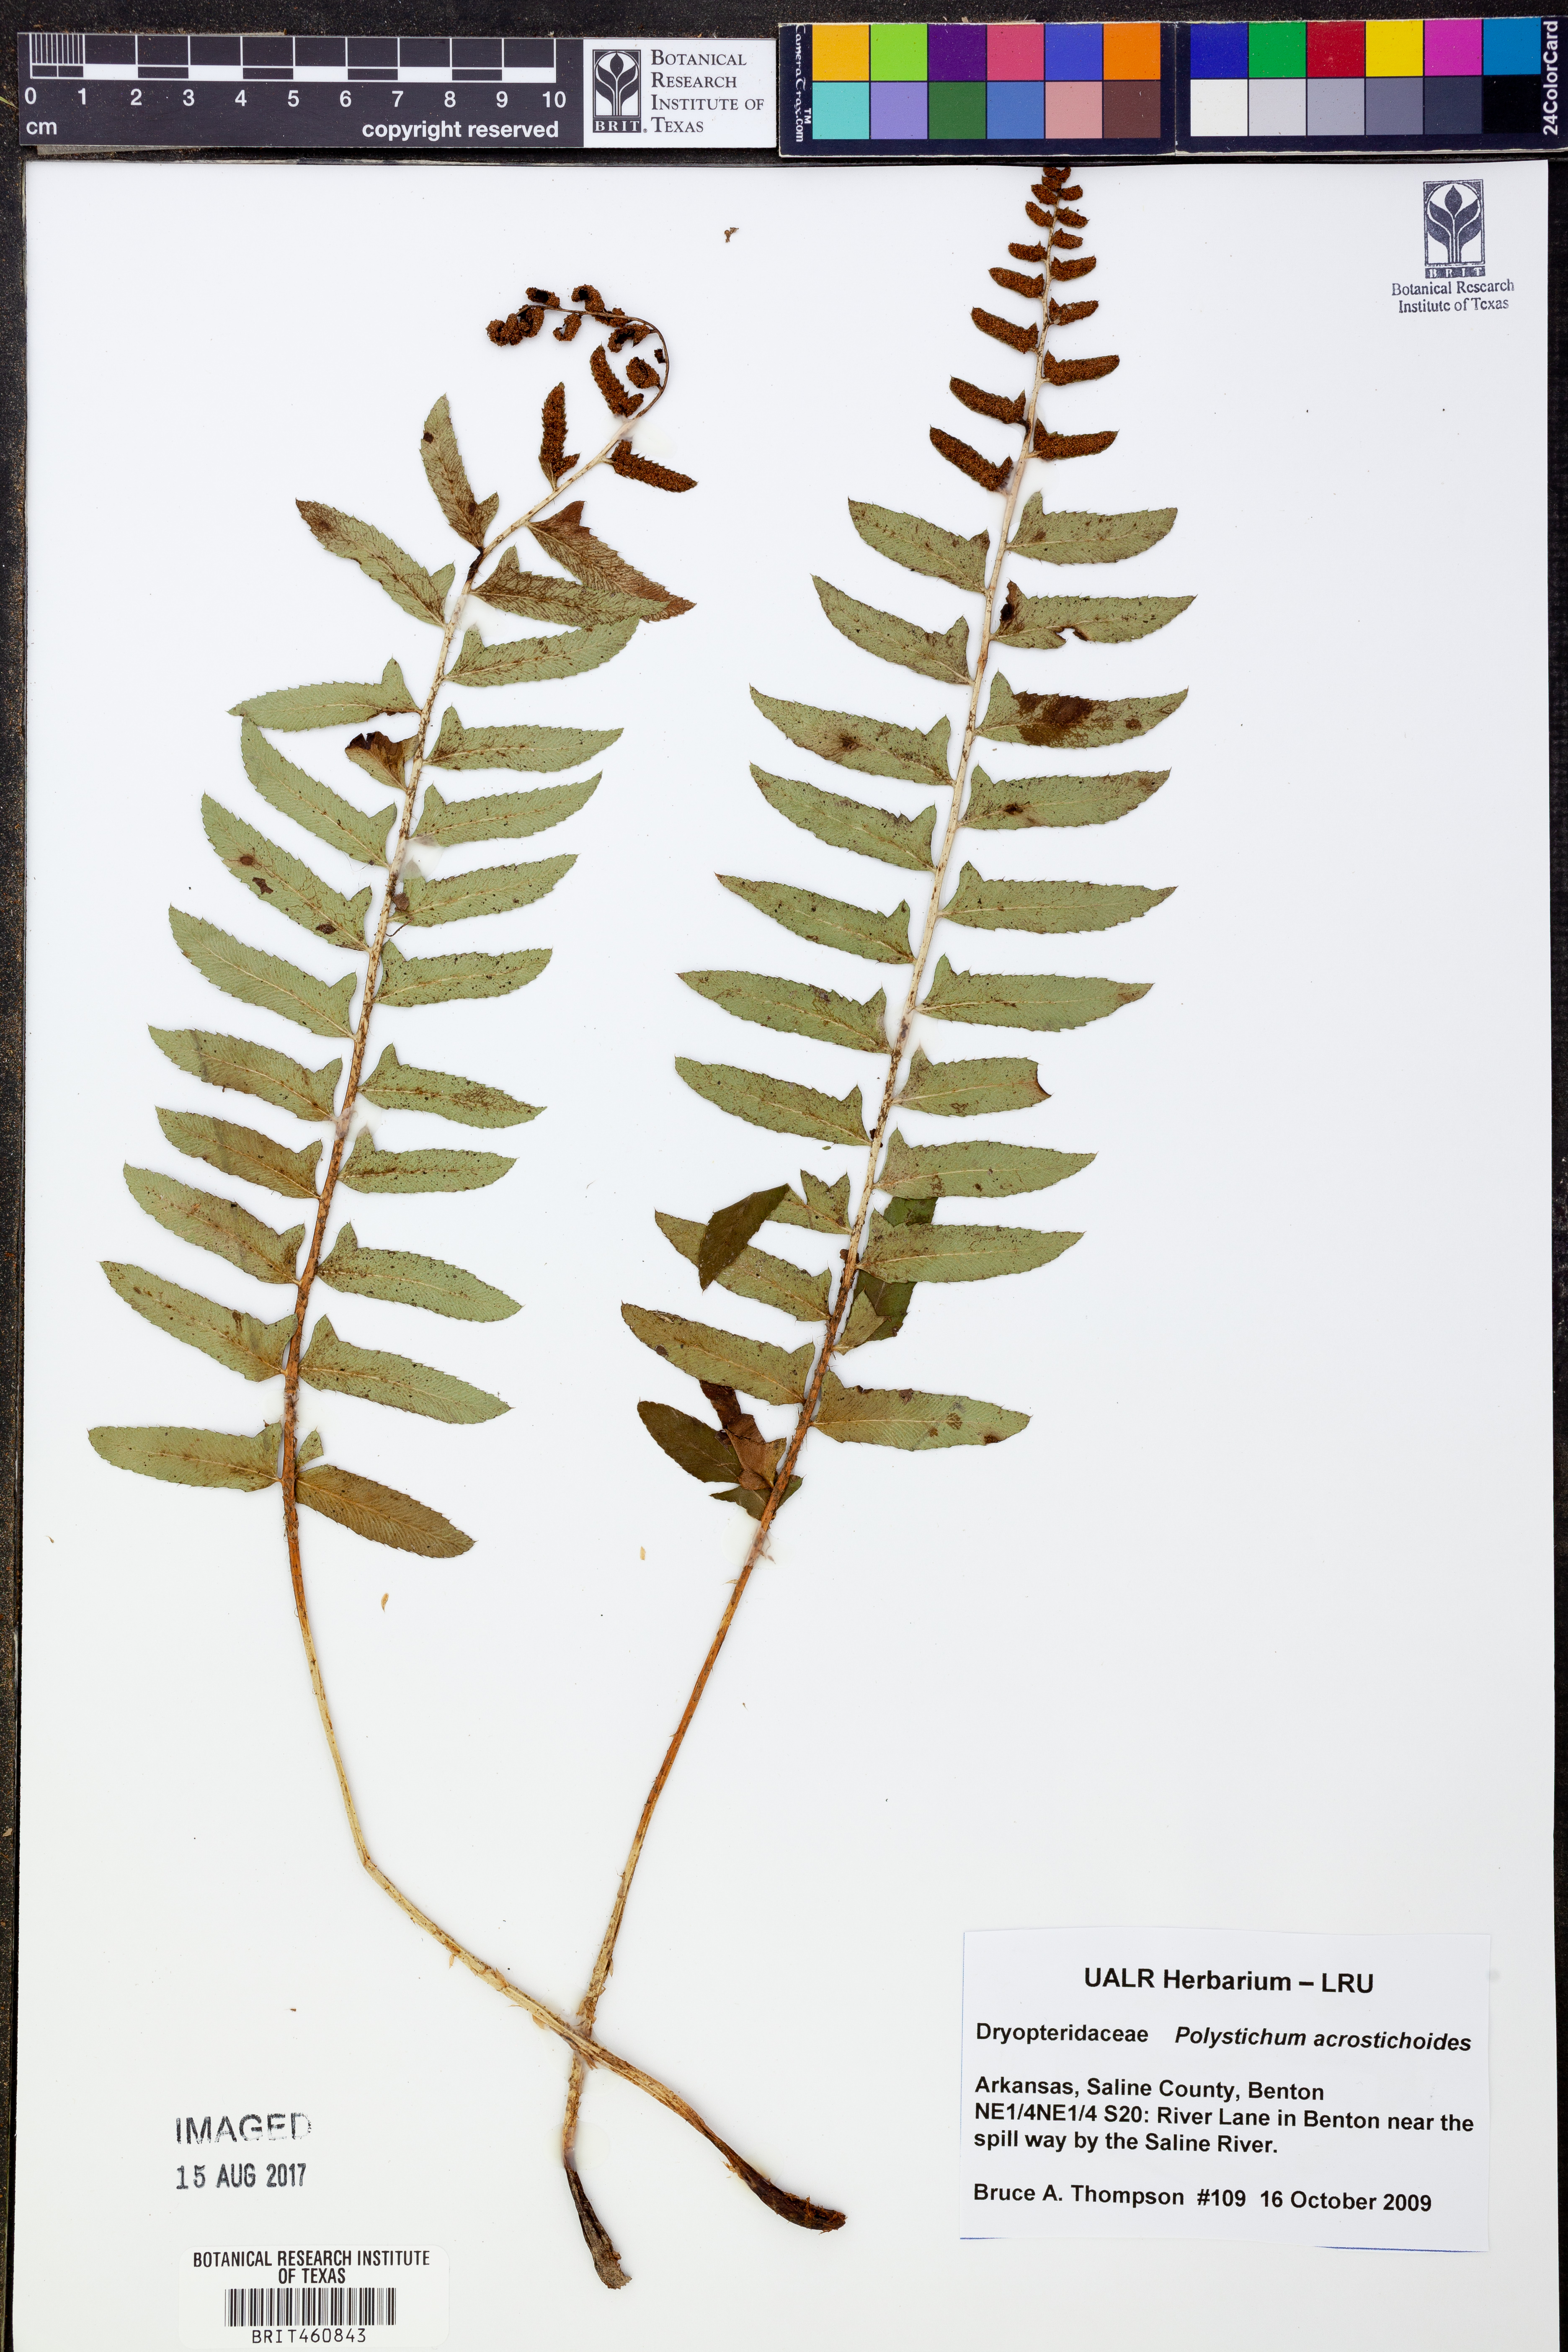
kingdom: Plantae
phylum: Tracheophyta
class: Polypodiopsida
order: Polypodiales
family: Dryopteridaceae
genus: Polystichum
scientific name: Polystichum acrostichoides
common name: Christmas fern
